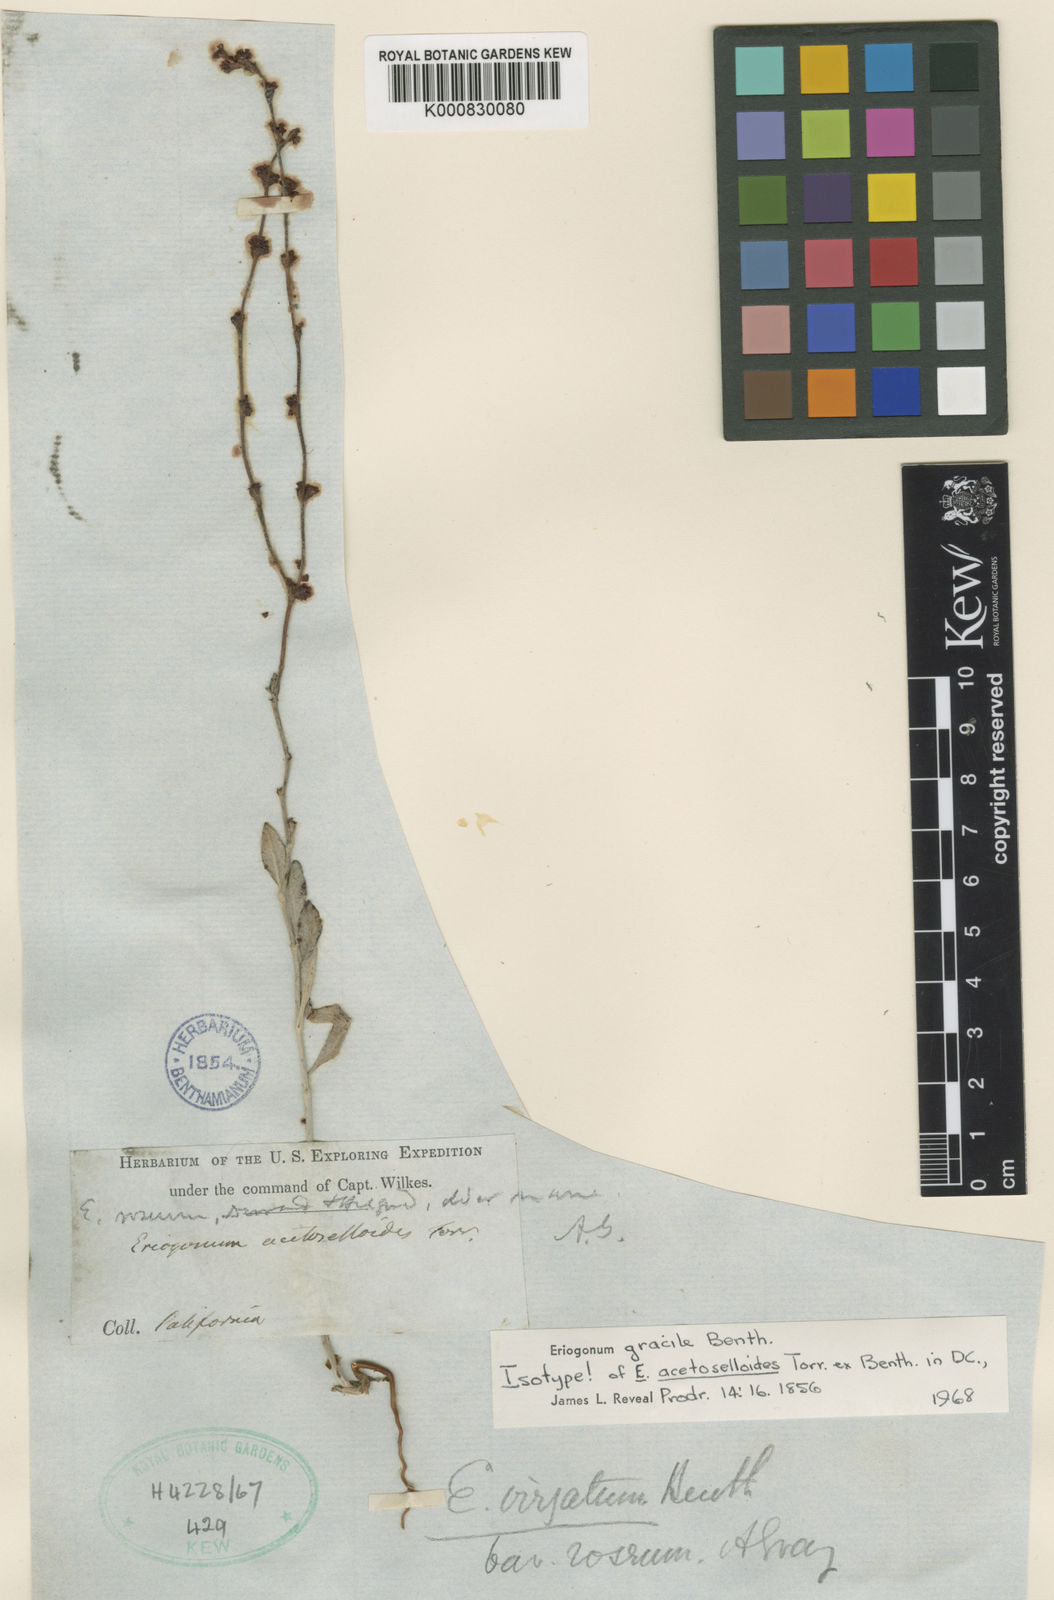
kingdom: Plantae
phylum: Tracheophyta
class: Magnoliopsida
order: Caryophyllales
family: Polygonaceae
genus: Eriogonum
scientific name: Eriogonum gracile
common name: Slender woolly buckwheat
